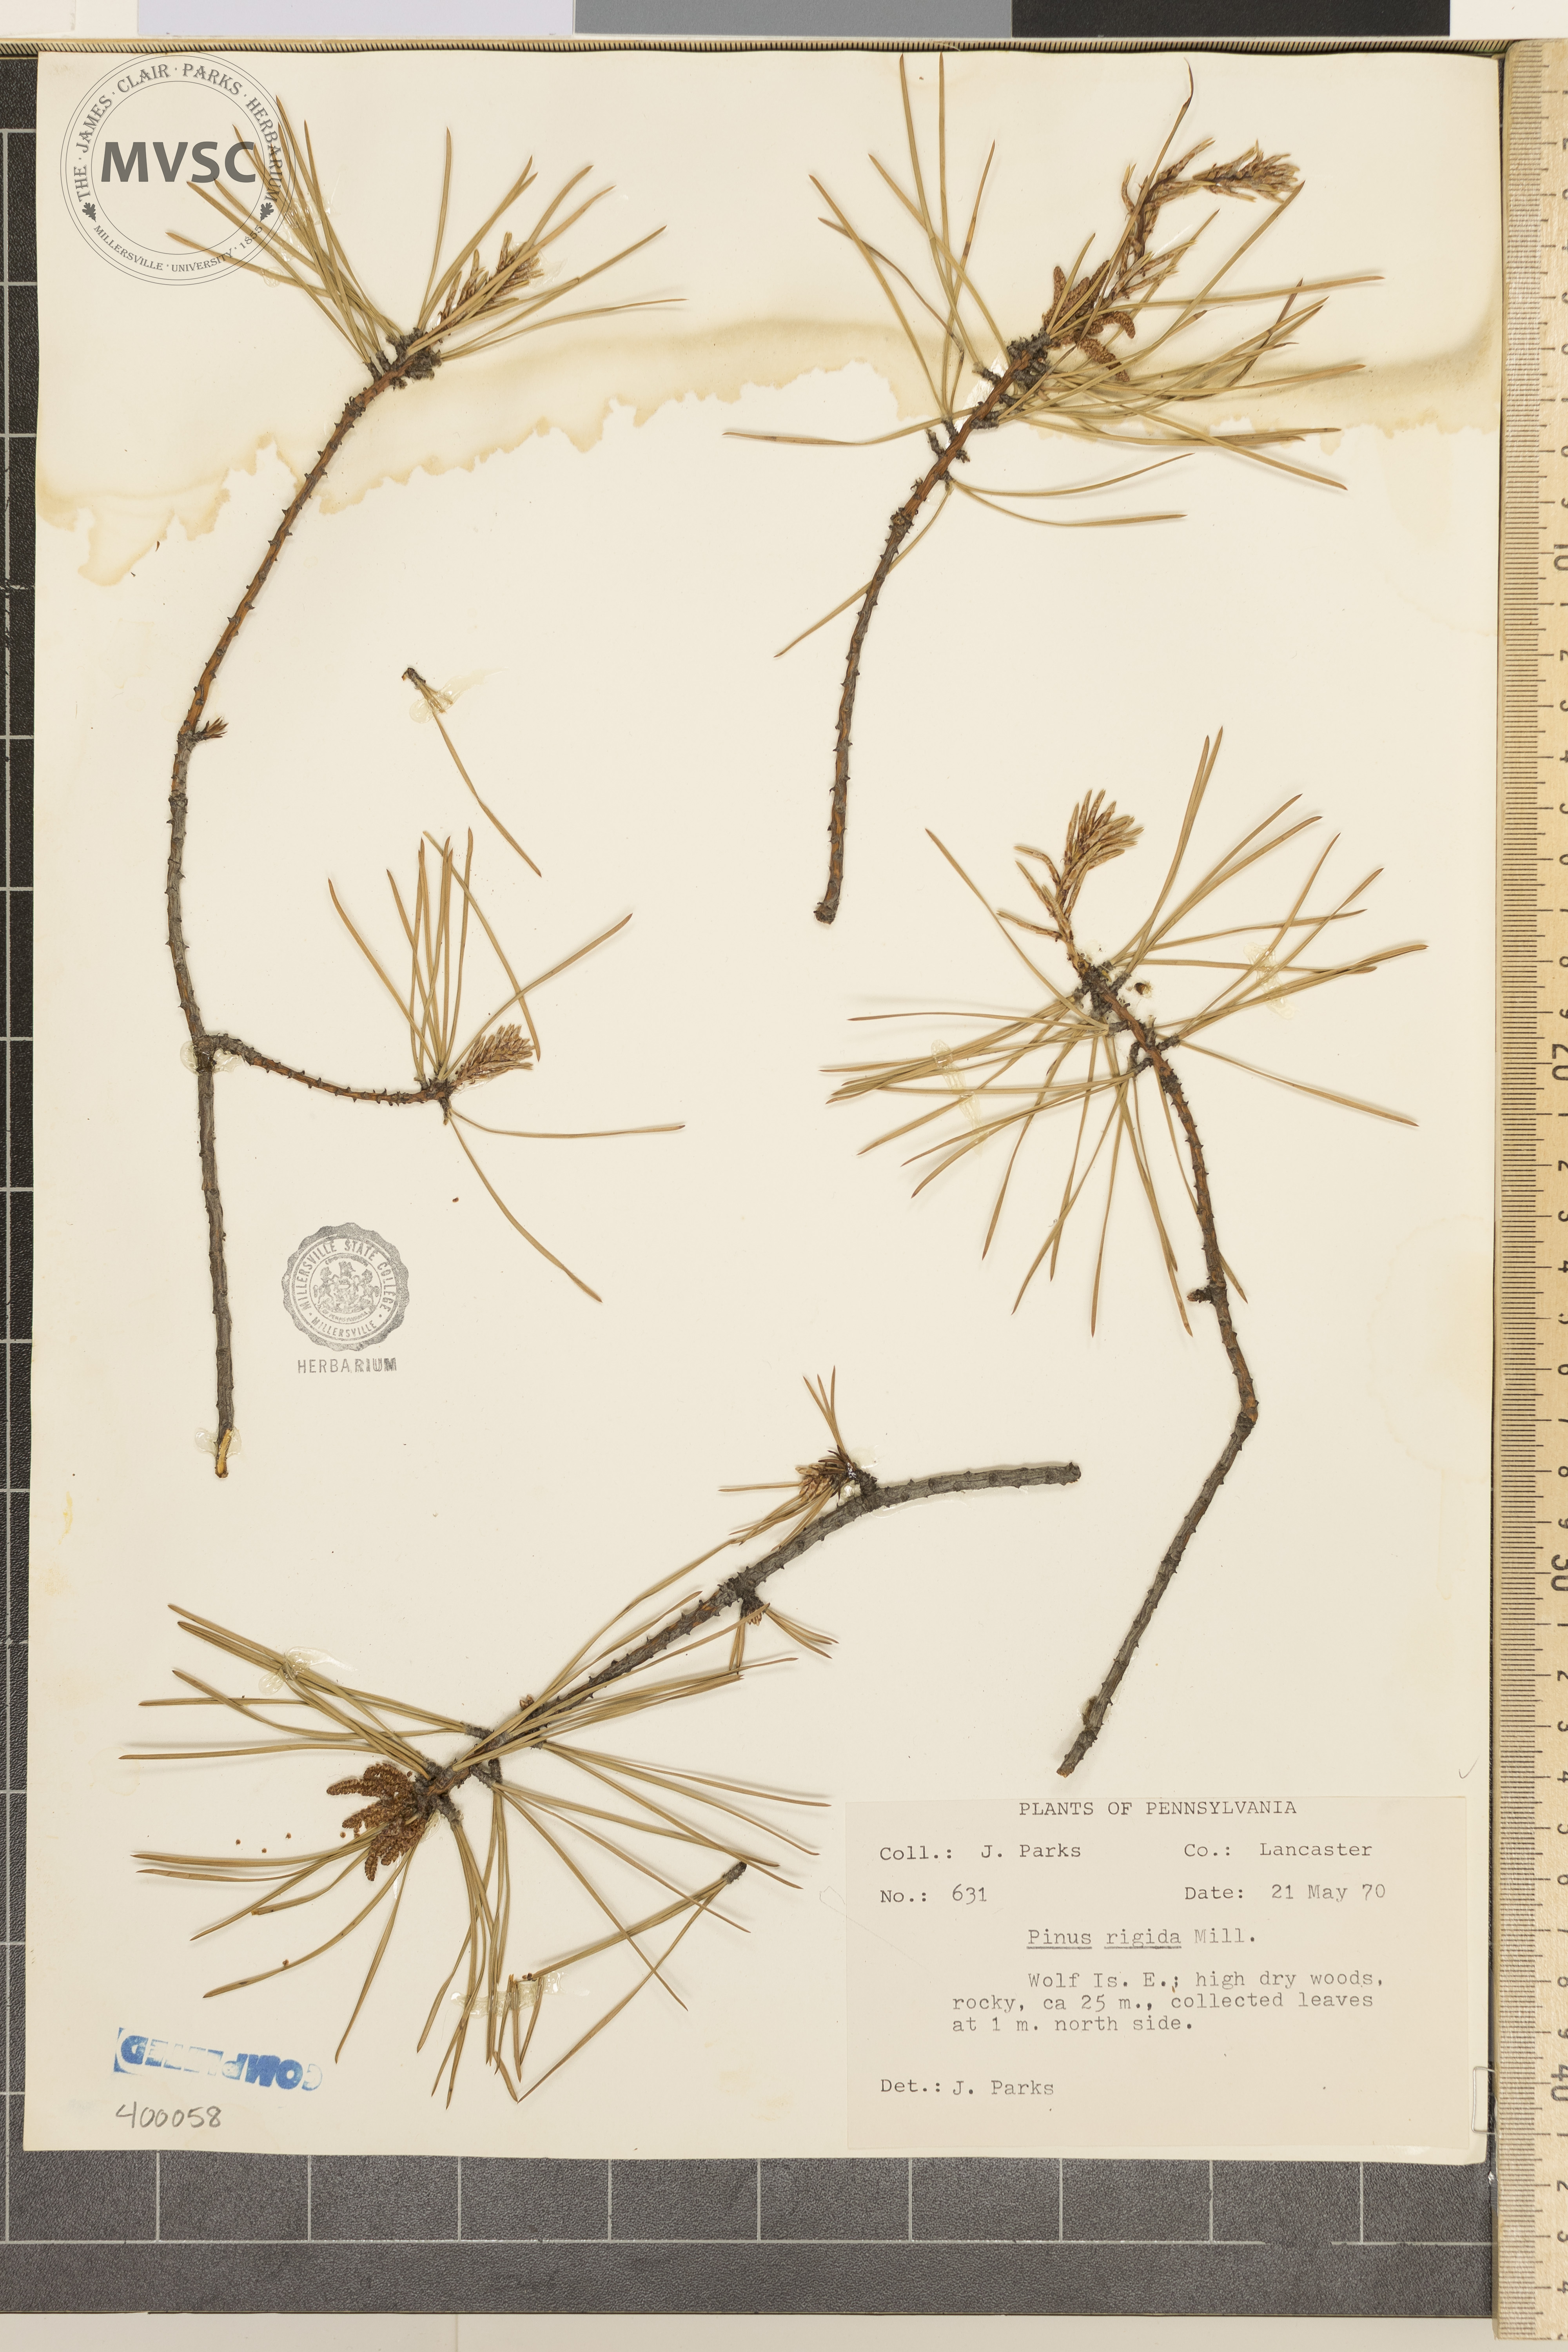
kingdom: Plantae
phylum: Tracheophyta
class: Pinopsida
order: Pinales
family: Pinaceae
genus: Pinus
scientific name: Pinus rigida
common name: pine
